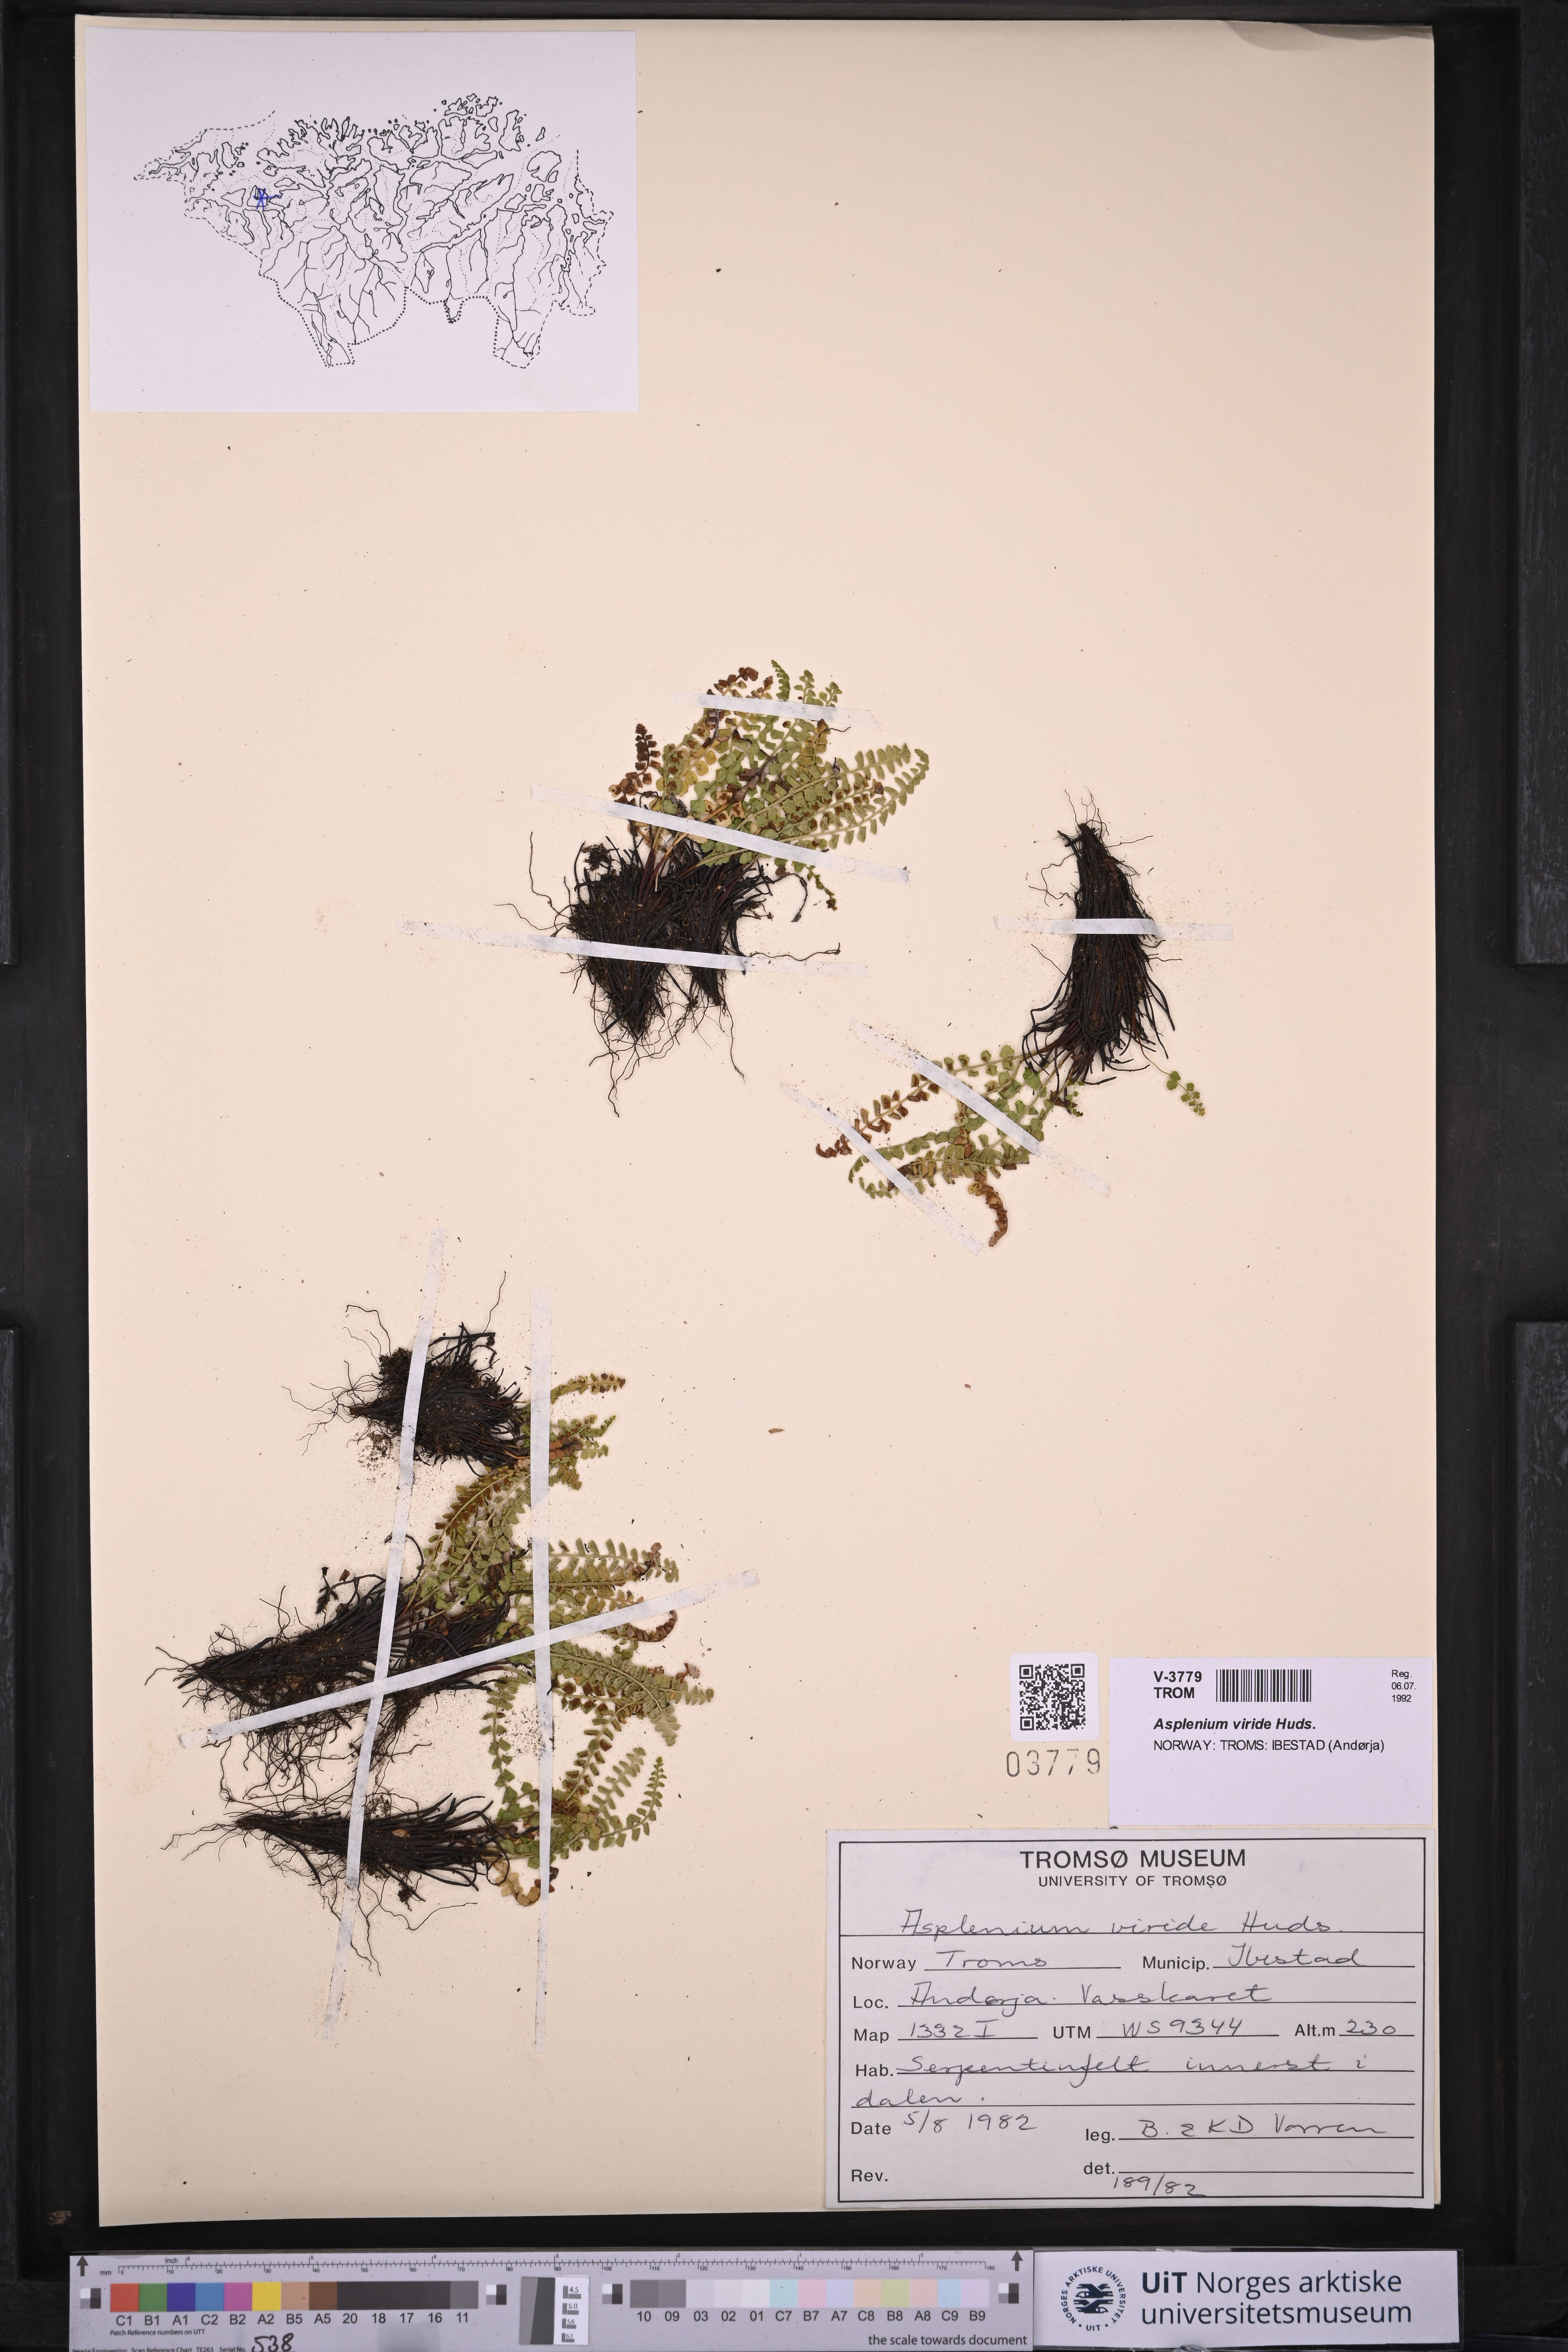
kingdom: Plantae
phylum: Tracheophyta
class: Polypodiopsida
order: Polypodiales
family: Aspleniaceae
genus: Asplenium
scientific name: Asplenium viride
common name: Green spleenwort
